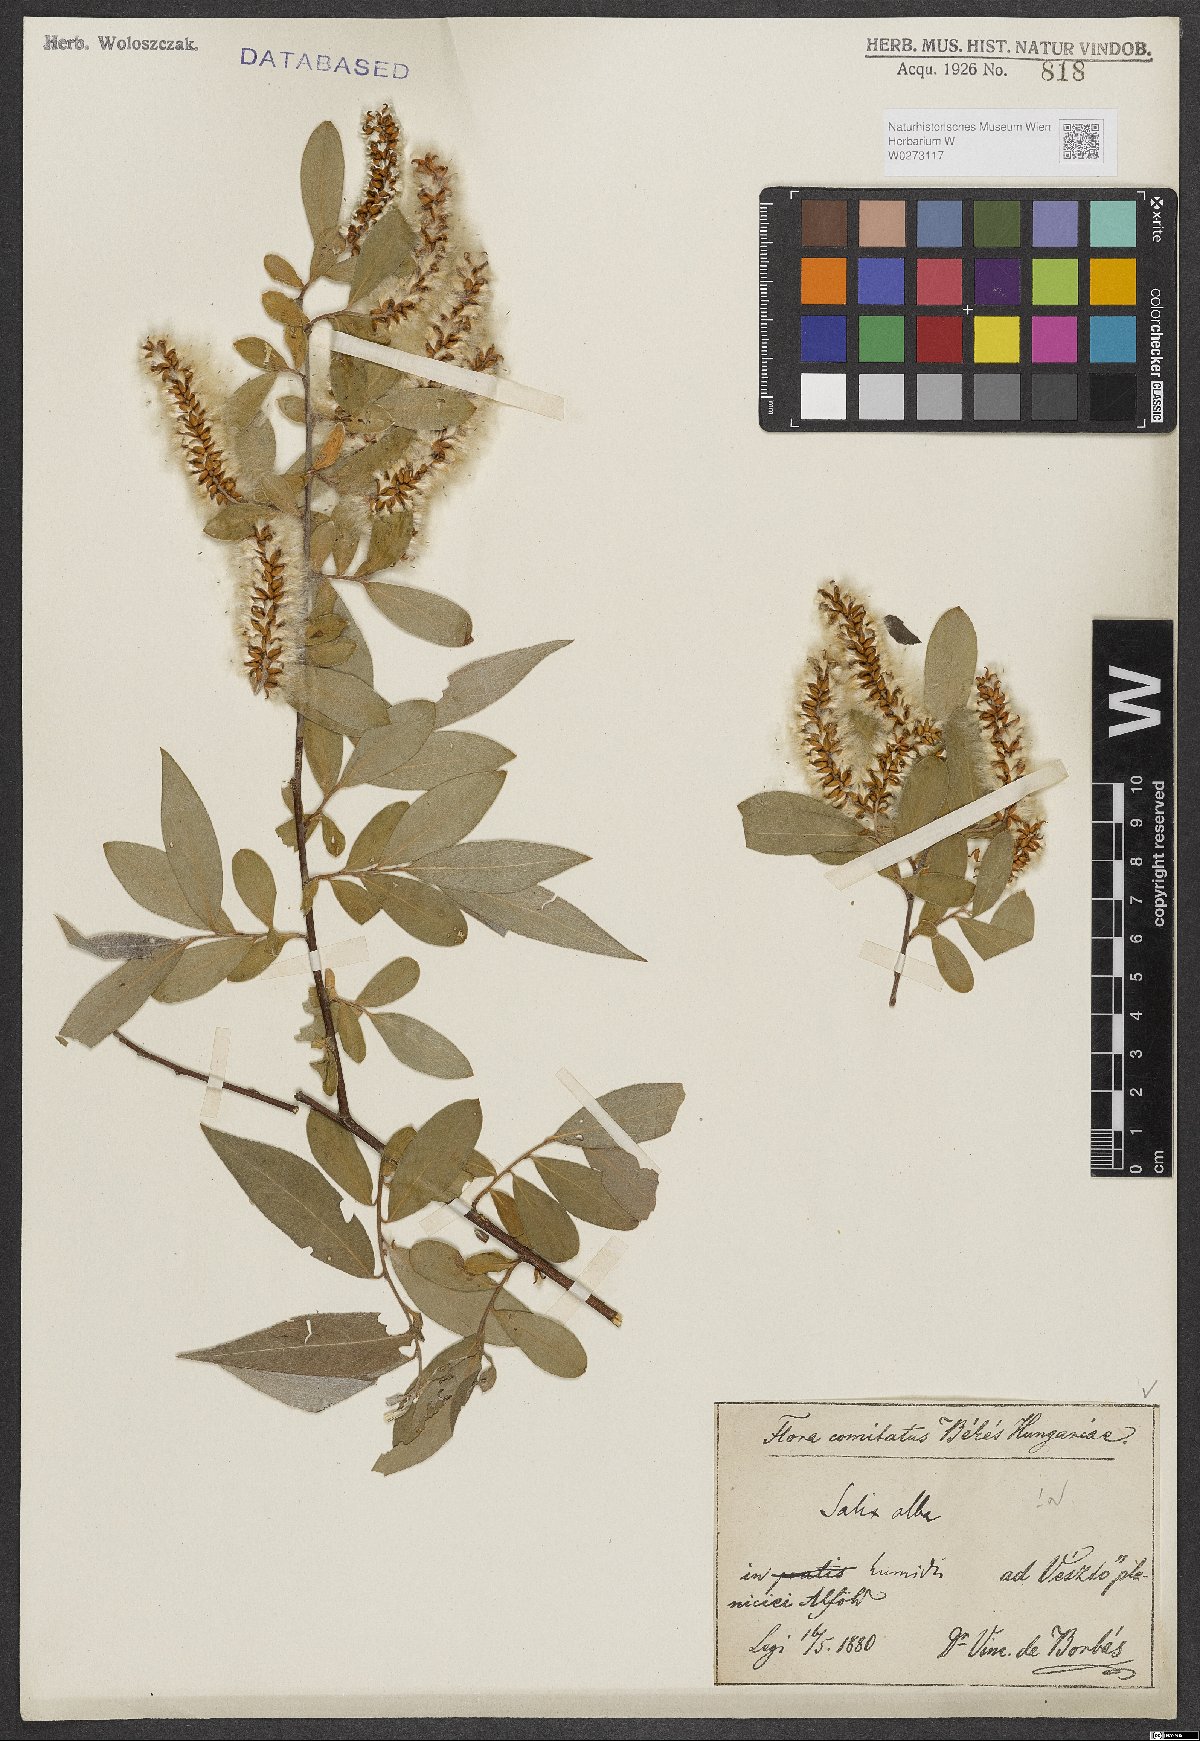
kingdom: Plantae
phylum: Tracheophyta
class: Magnoliopsida
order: Malpighiales
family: Salicaceae
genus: Salix
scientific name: Salix alba
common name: White willow
